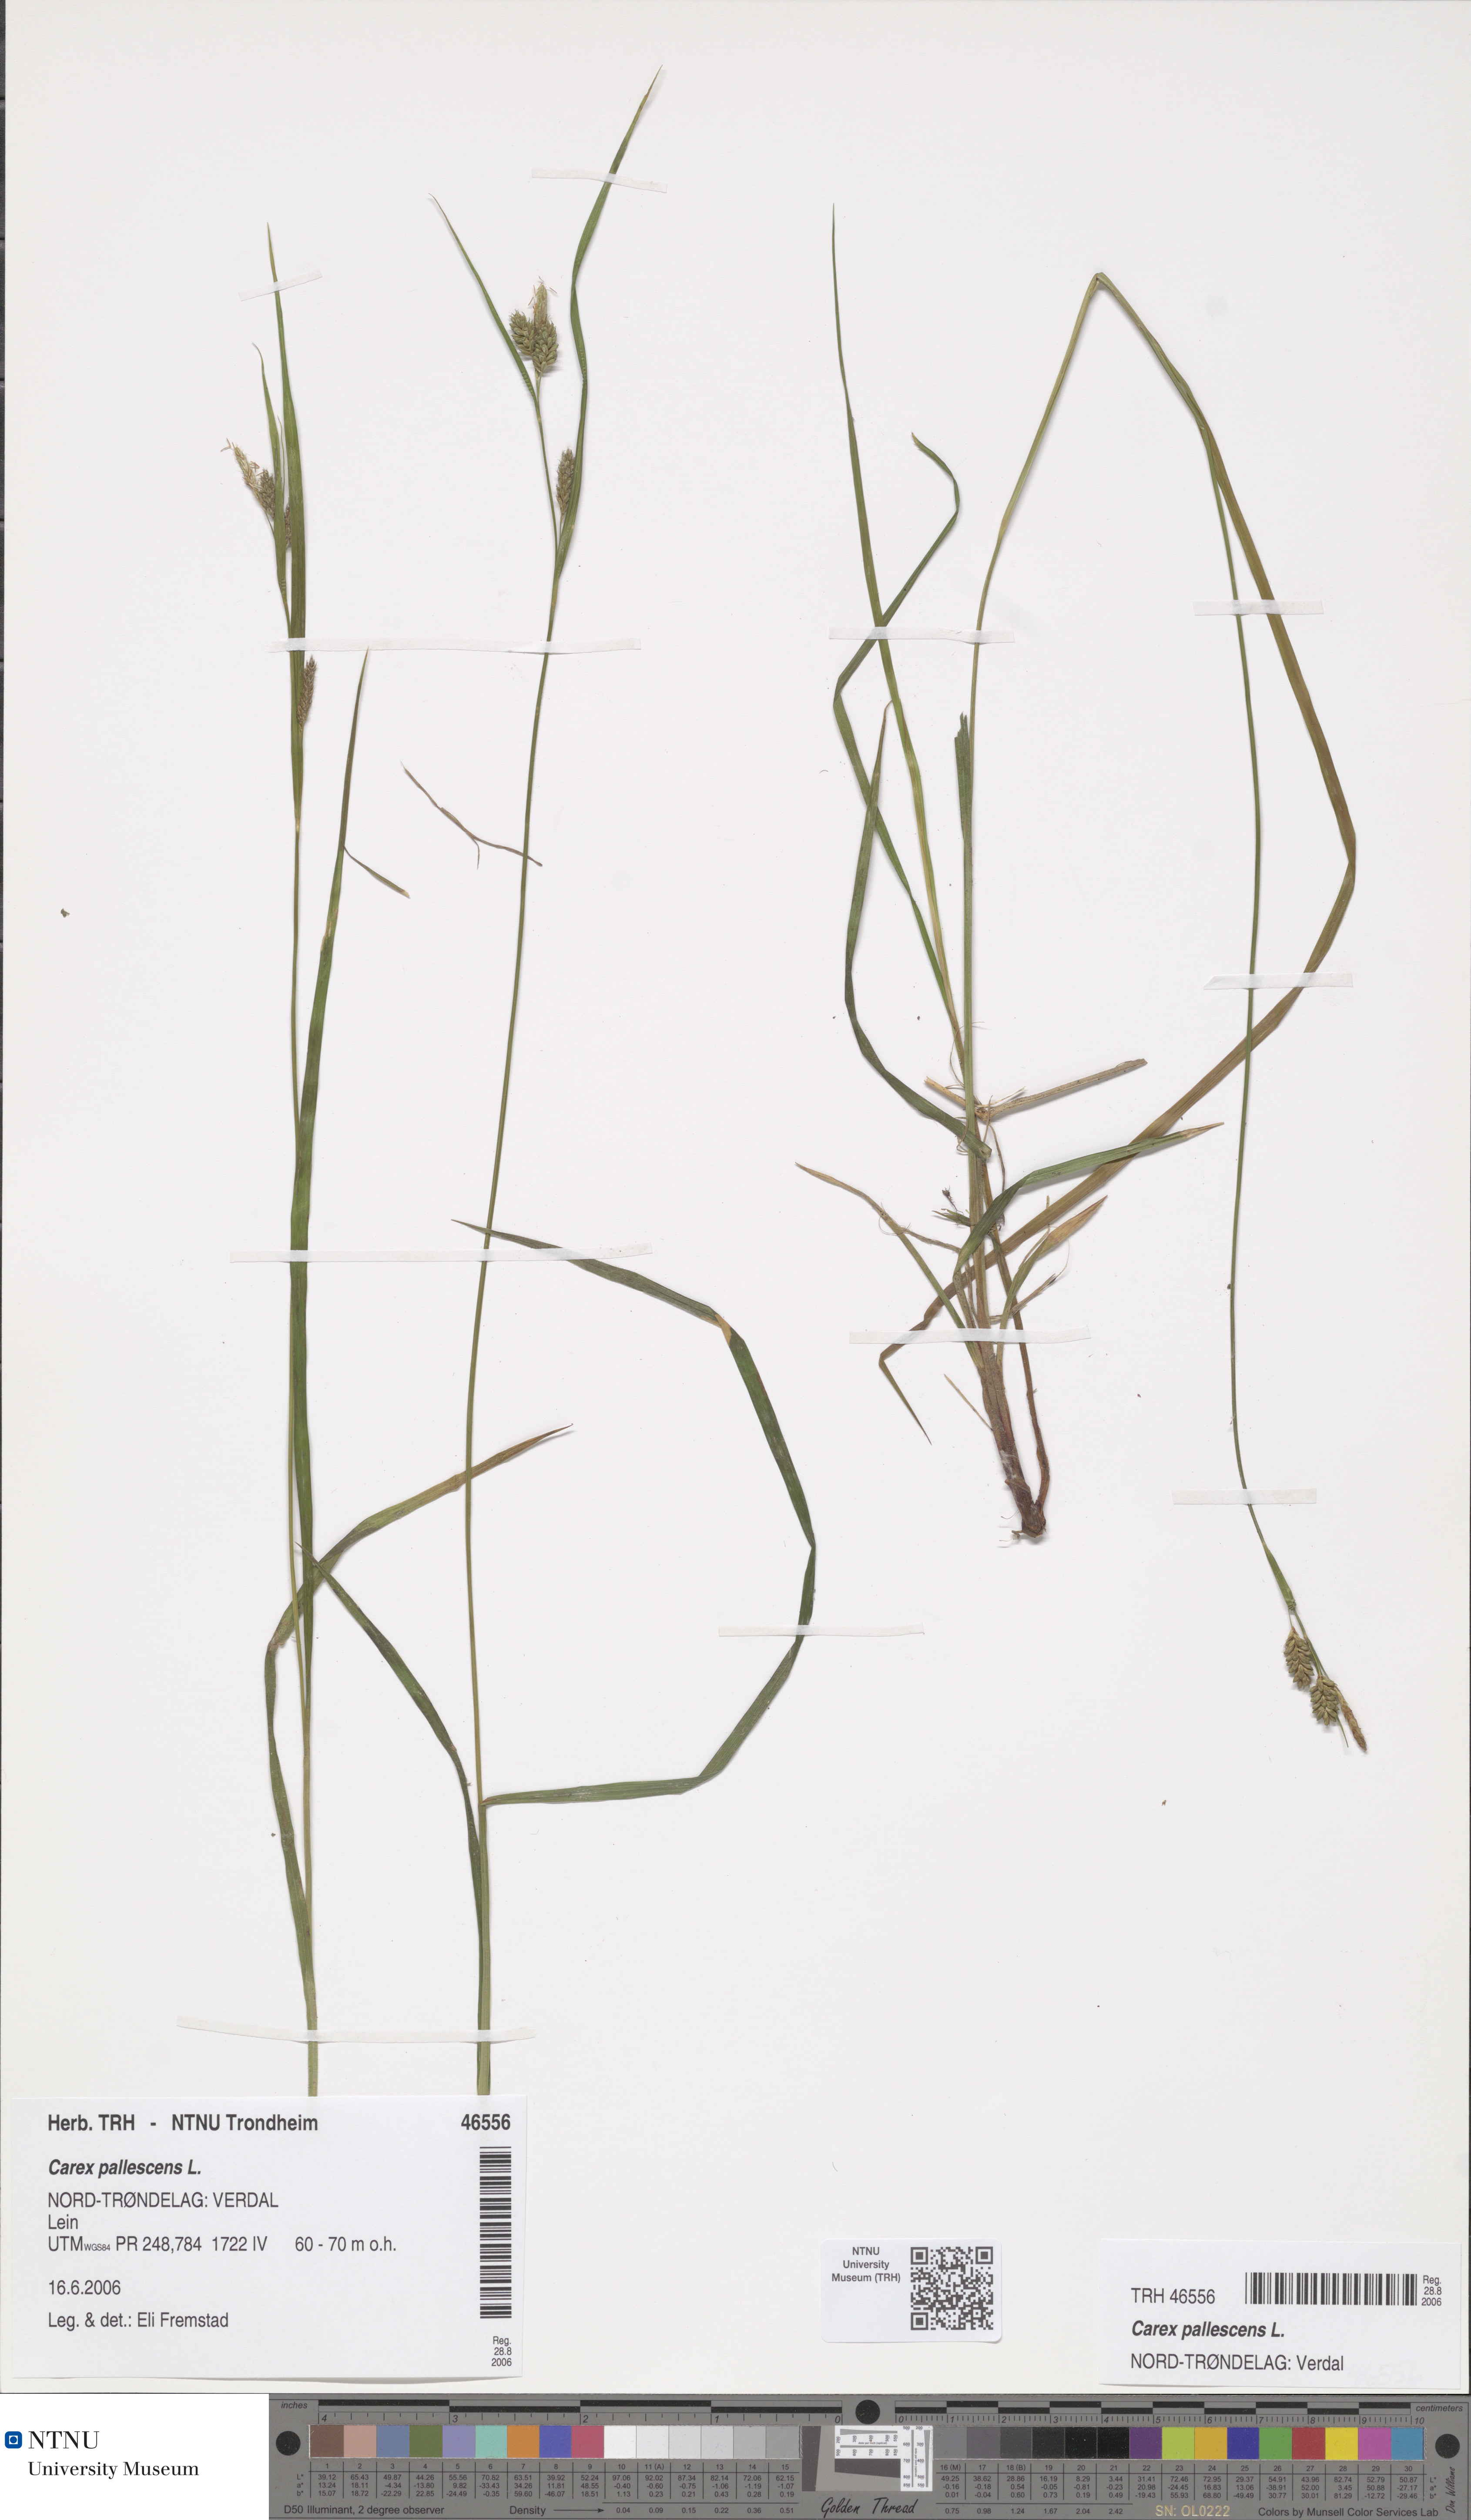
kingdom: Plantae
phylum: Tracheophyta
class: Liliopsida
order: Poales
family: Cyperaceae
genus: Carex
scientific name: Carex pallescens
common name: Pale sedge
